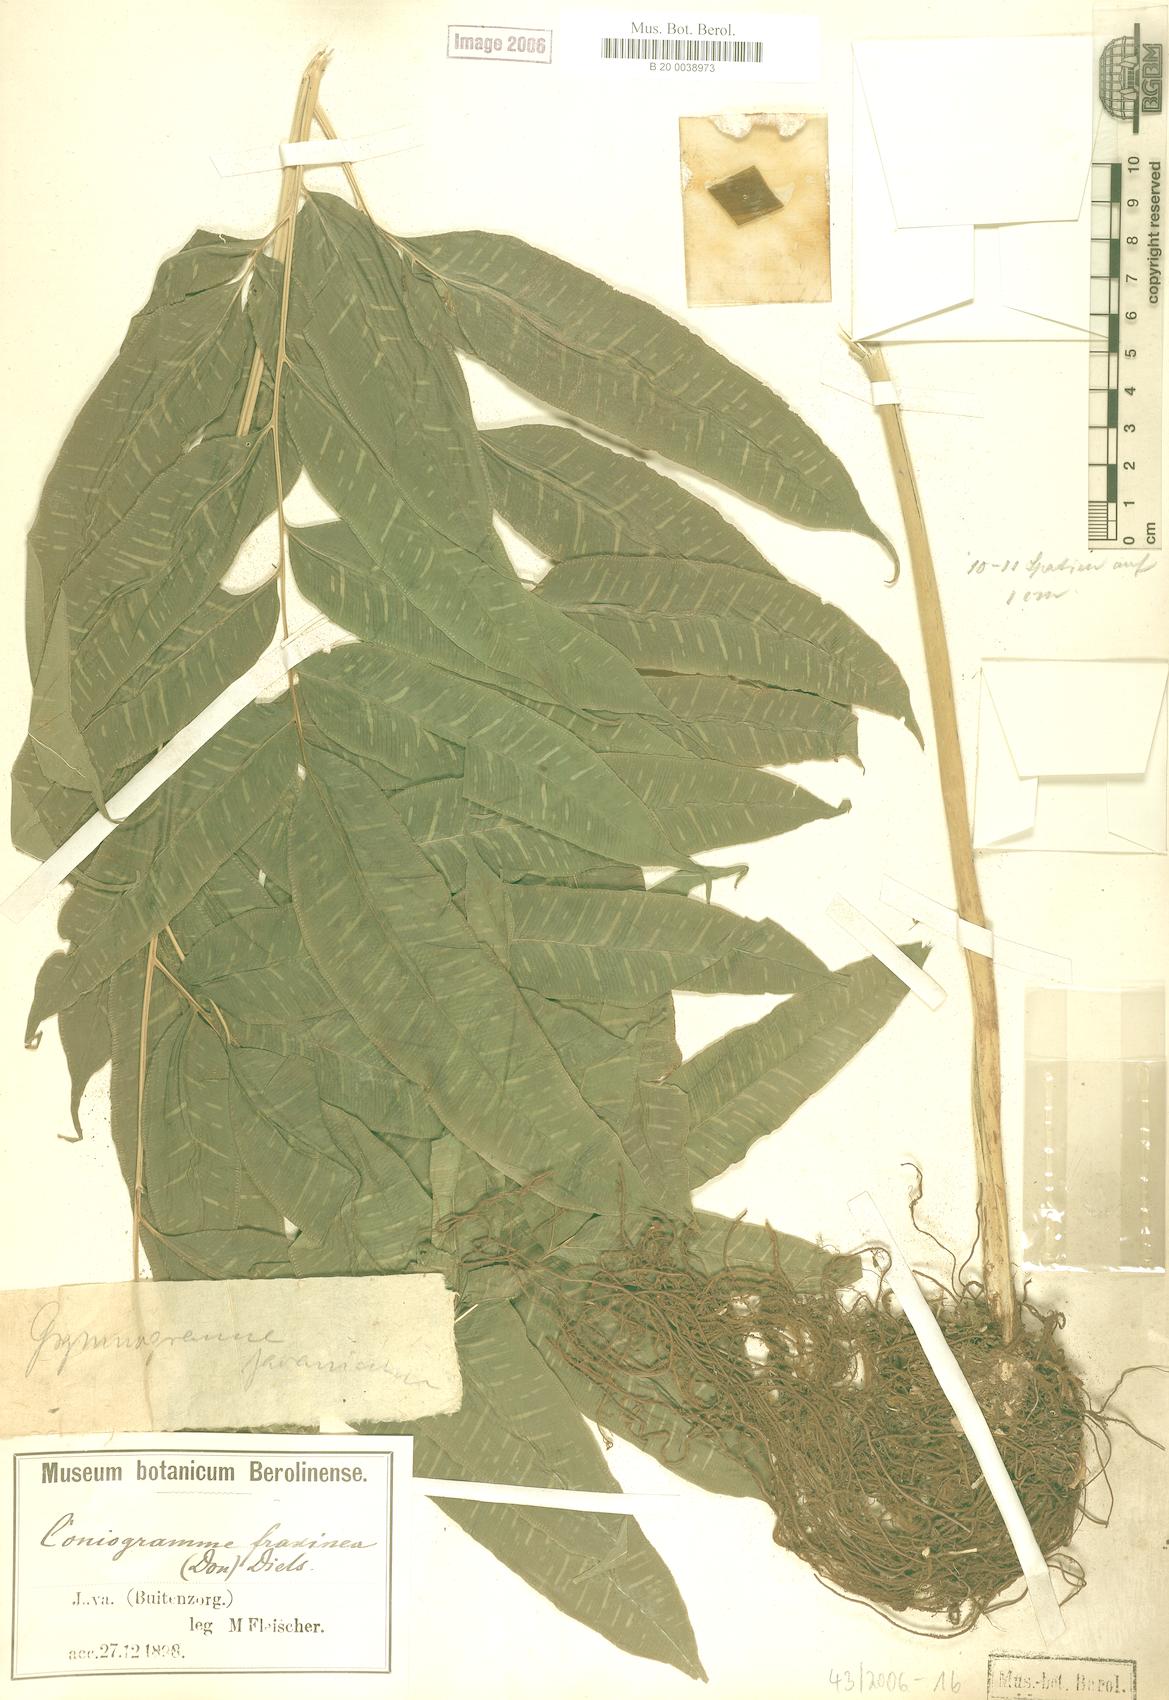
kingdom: Plantae
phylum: Tracheophyta
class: Polypodiopsida
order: Polypodiales
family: Pteridaceae
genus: Coniogramme
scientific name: Coniogramme fraxinea
